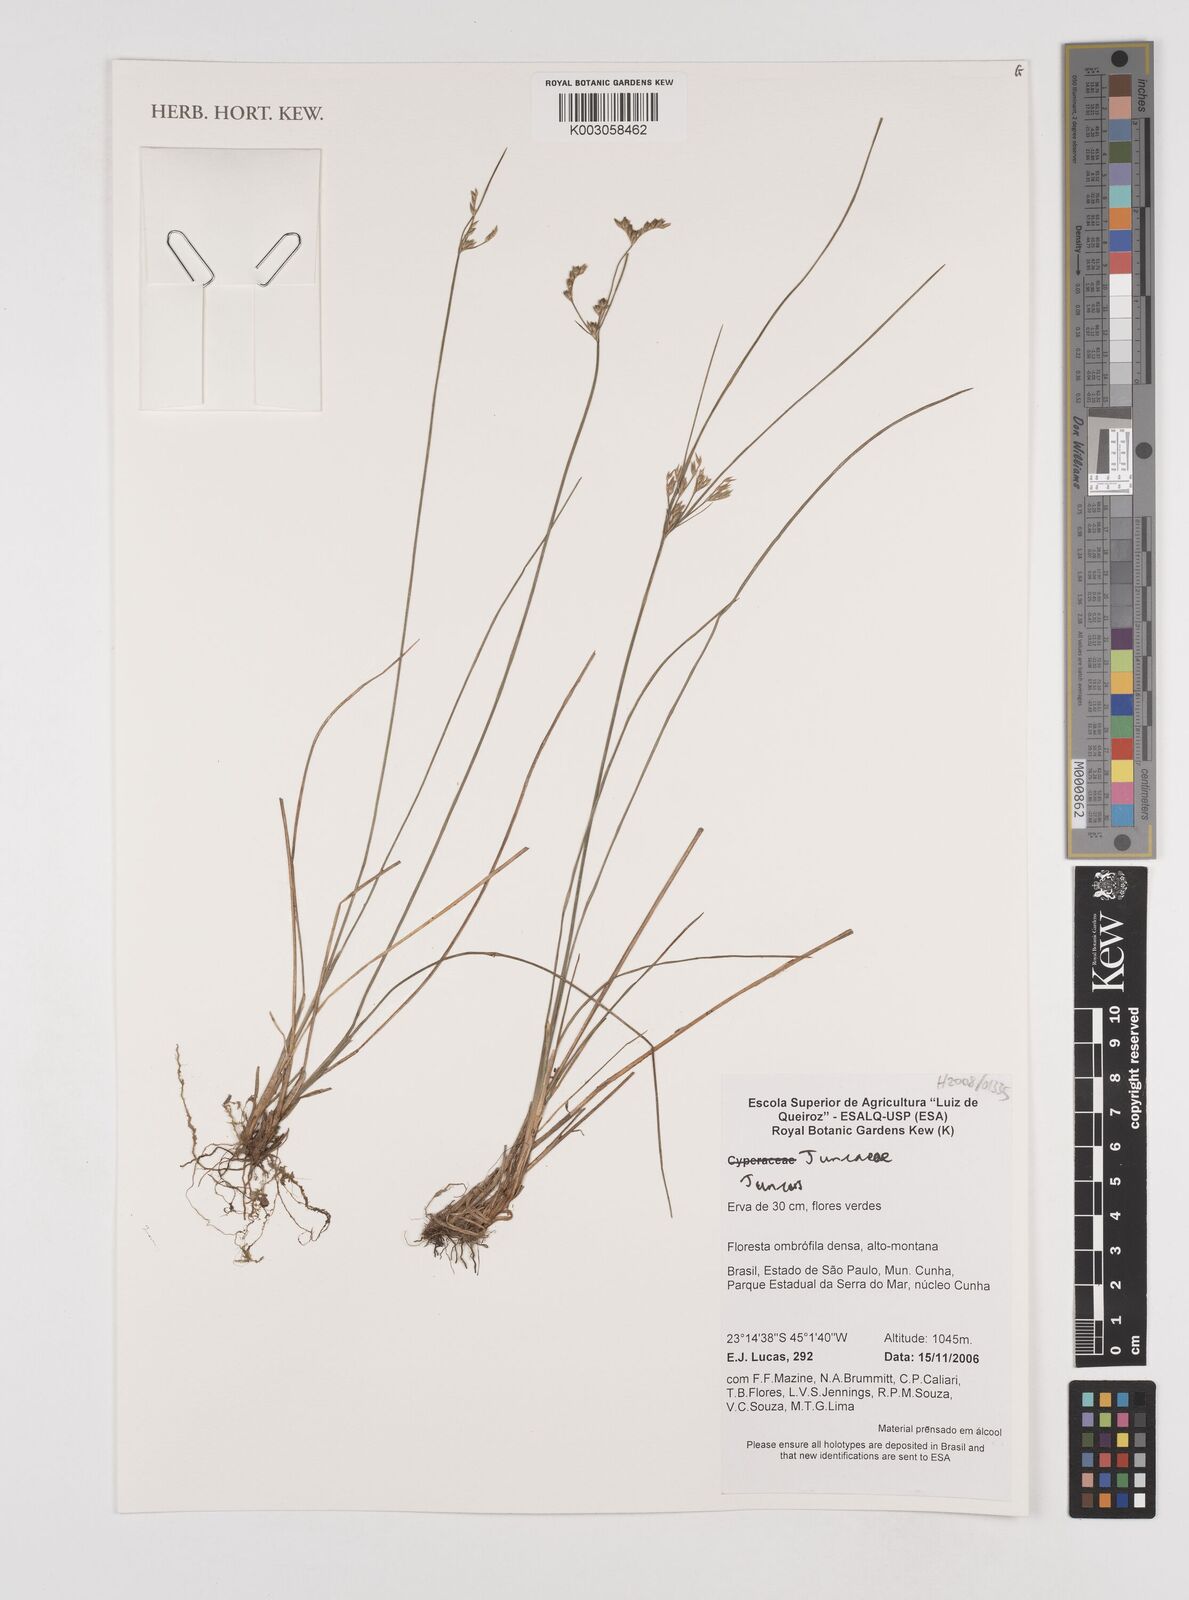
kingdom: Plantae
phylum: Tracheophyta
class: Liliopsida
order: Poales
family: Juncaceae
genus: Juncus
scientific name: Juncus
